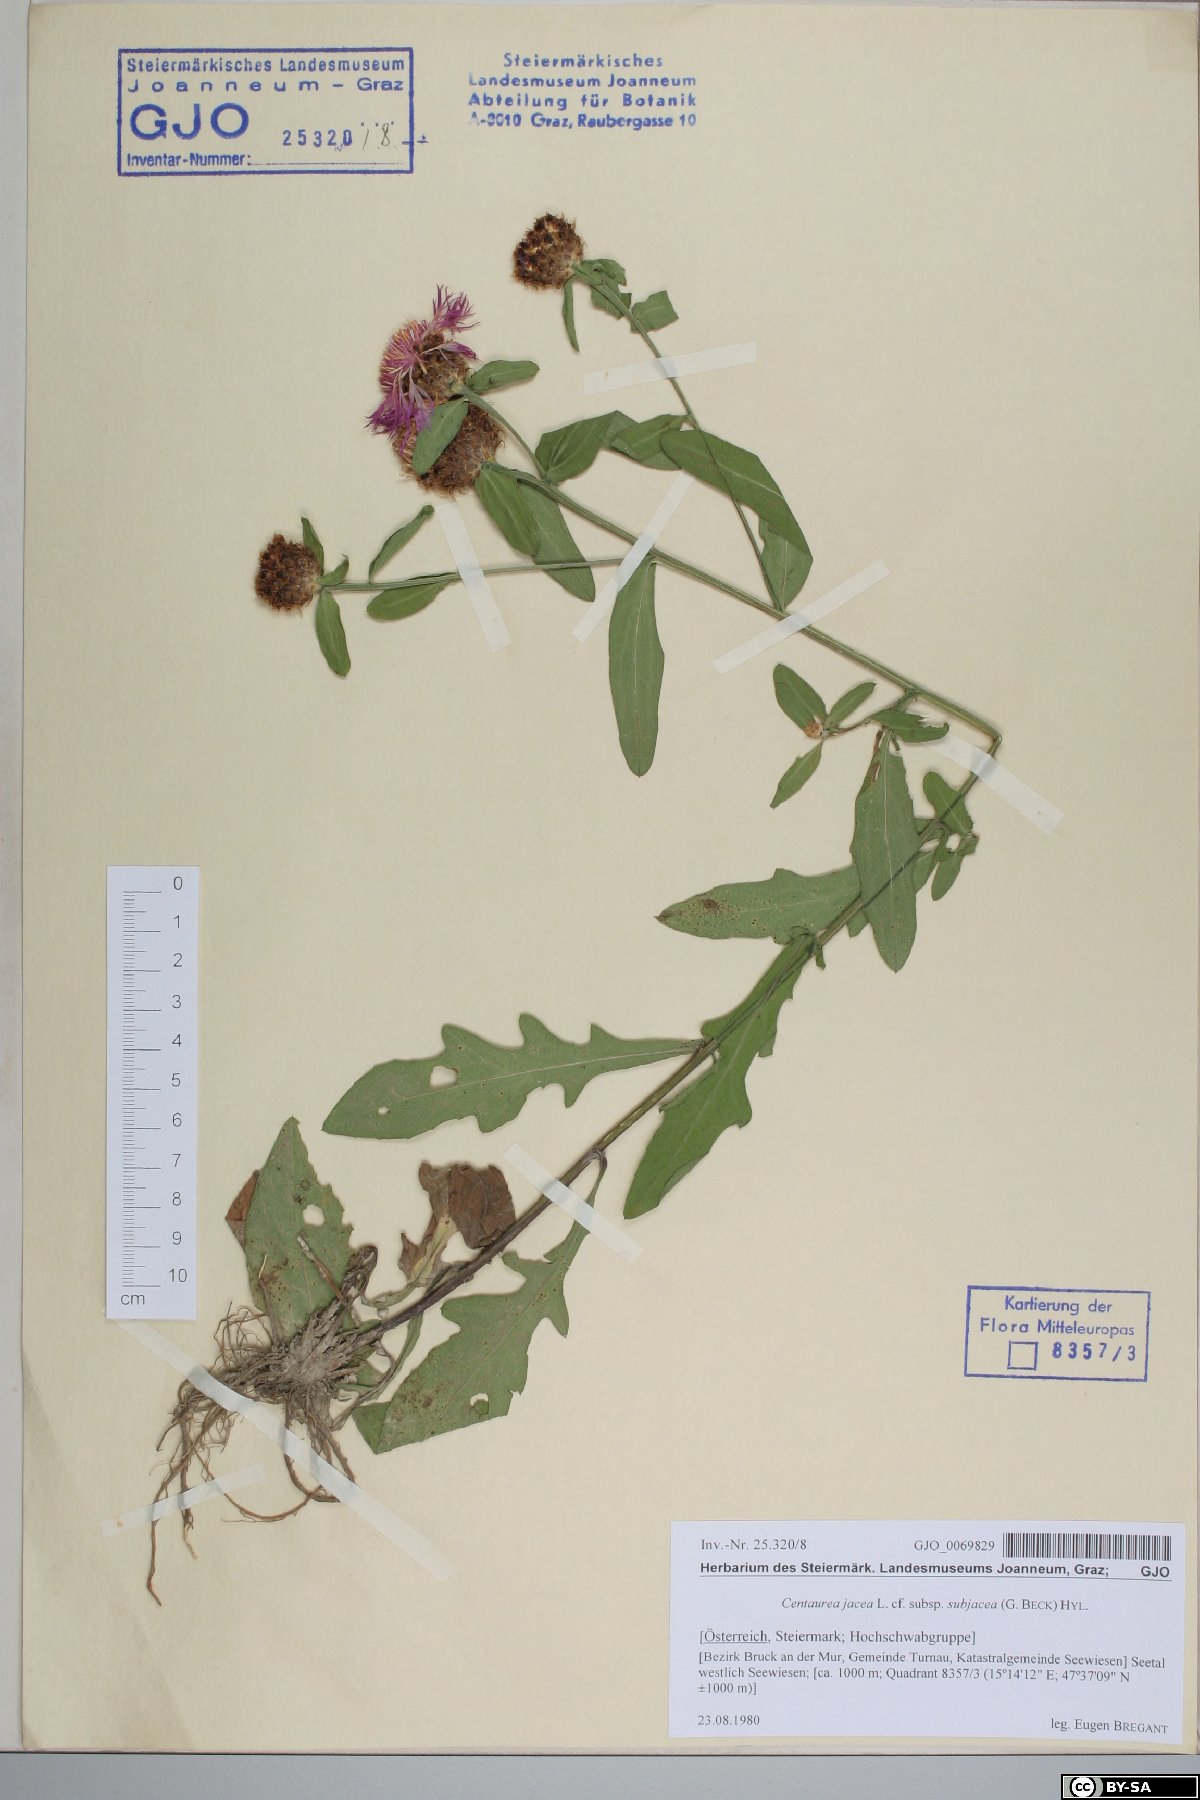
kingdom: Plantae
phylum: Tracheophyta
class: Magnoliopsida
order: Asterales
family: Asteraceae
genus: Centaurea
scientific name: Centaurea preissmannii
